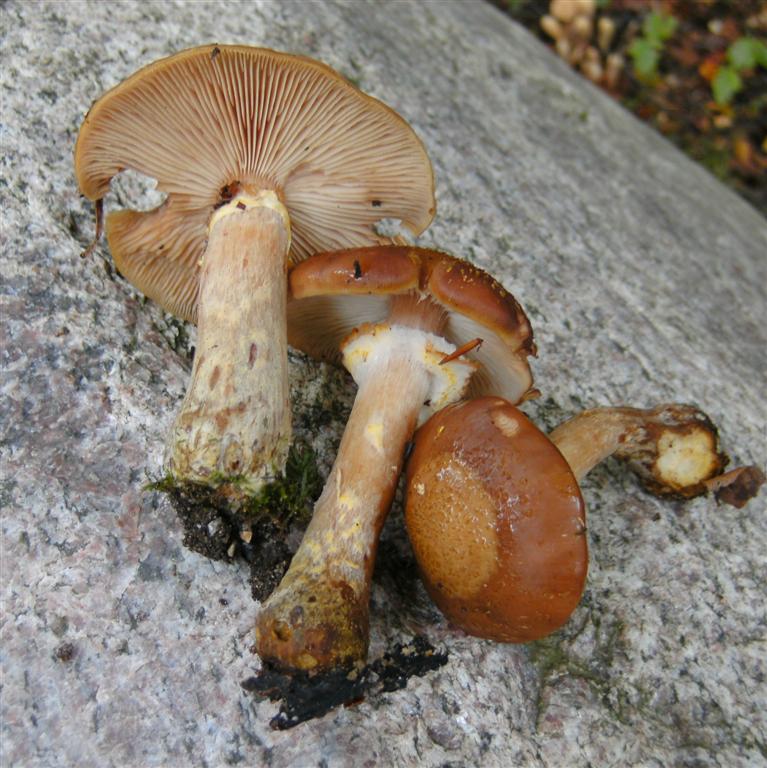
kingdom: Fungi
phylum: Basidiomycota
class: Agaricomycetes
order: Agaricales
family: Physalacriaceae
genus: Armillaria
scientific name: Armillaria lutea
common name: køllestokket honningsvamp
